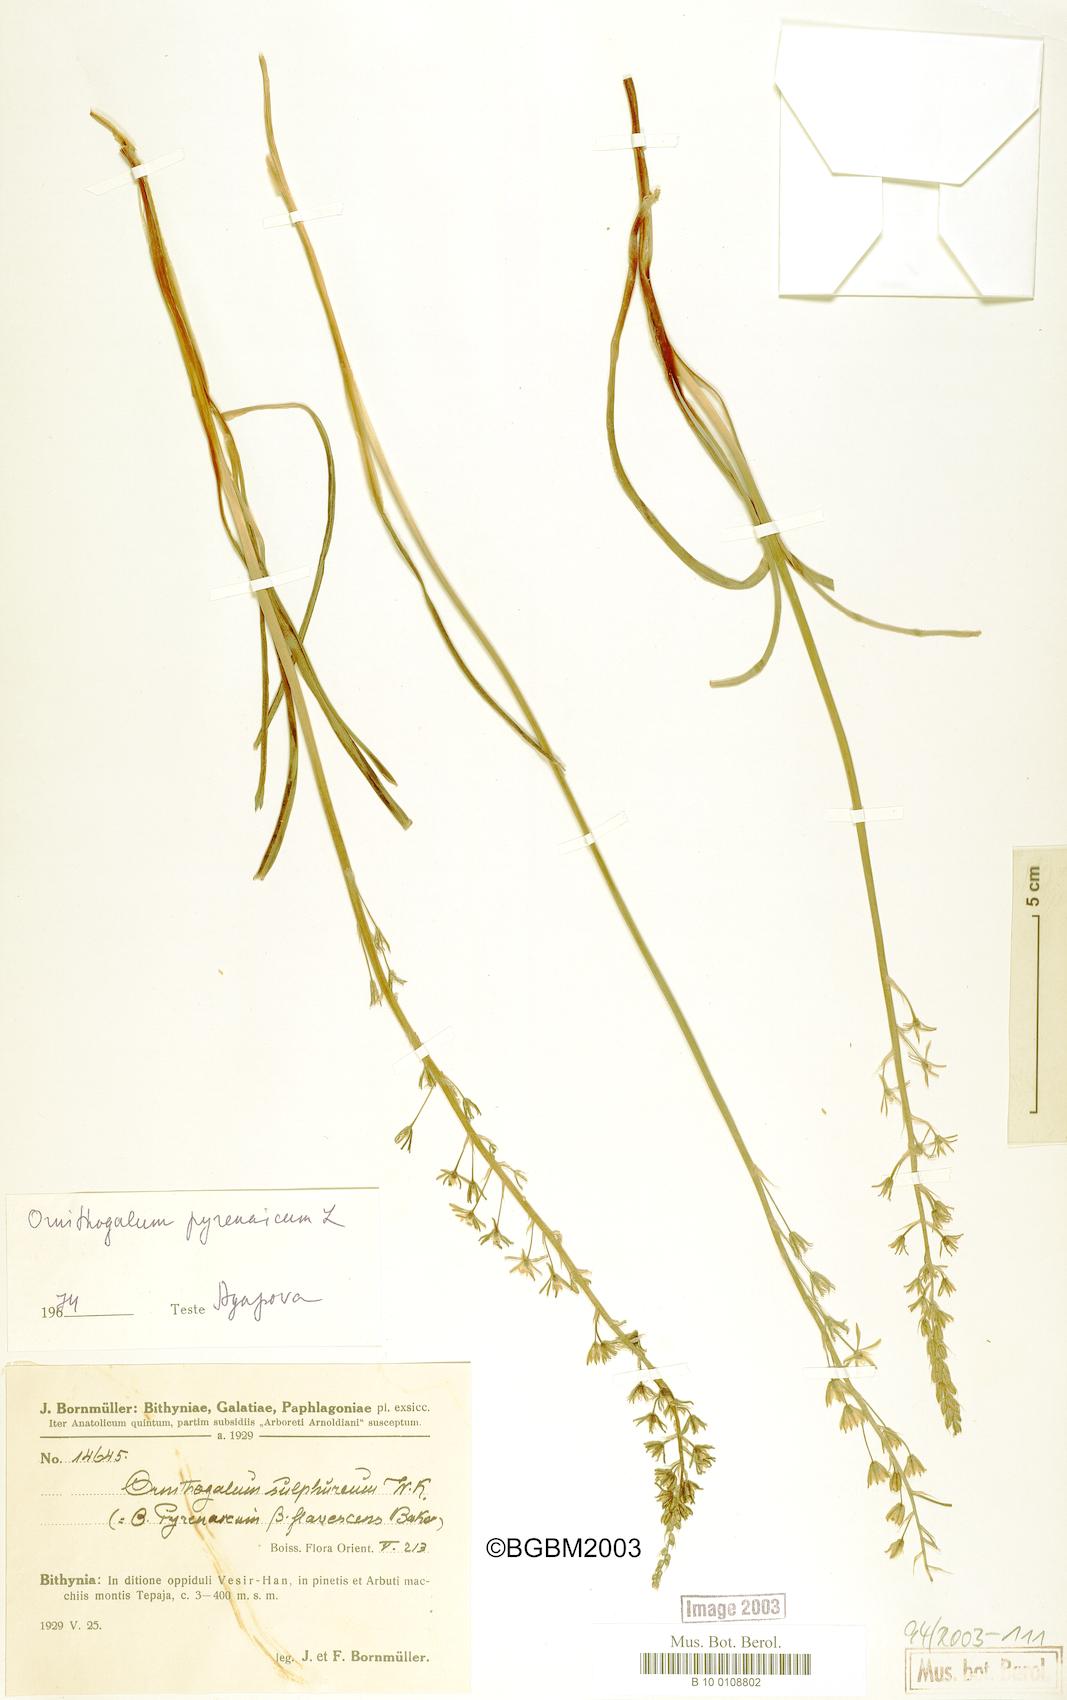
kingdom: Plantae
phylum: Tracheophyta
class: Liliopsida
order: Asparagales
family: Asparagaceae
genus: Ornithogalum
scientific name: Ornithogalum pyrenaicum
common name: Spiked star-of-bethlehem
